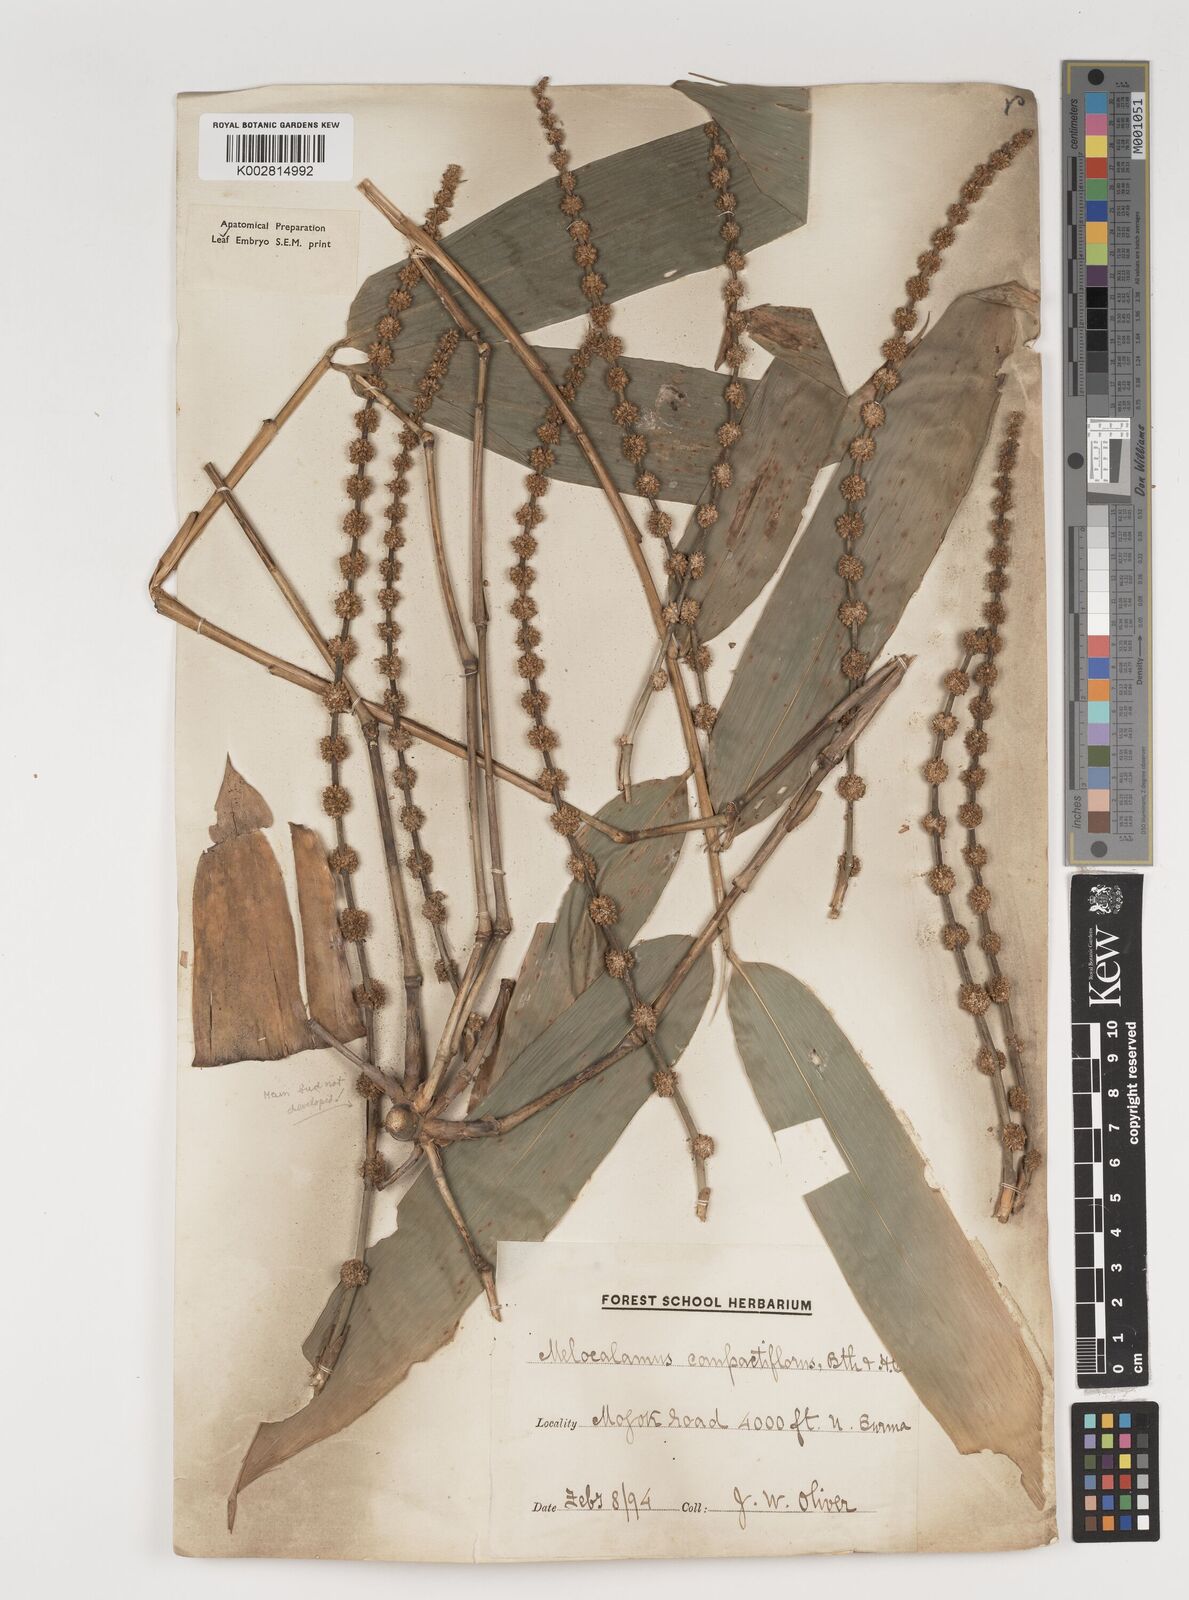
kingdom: Plantae
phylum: Tracheophyta
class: Liliopsida
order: Poales
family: Poaceae
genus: Melocalamus
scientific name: Melocalamus compactiflorus
